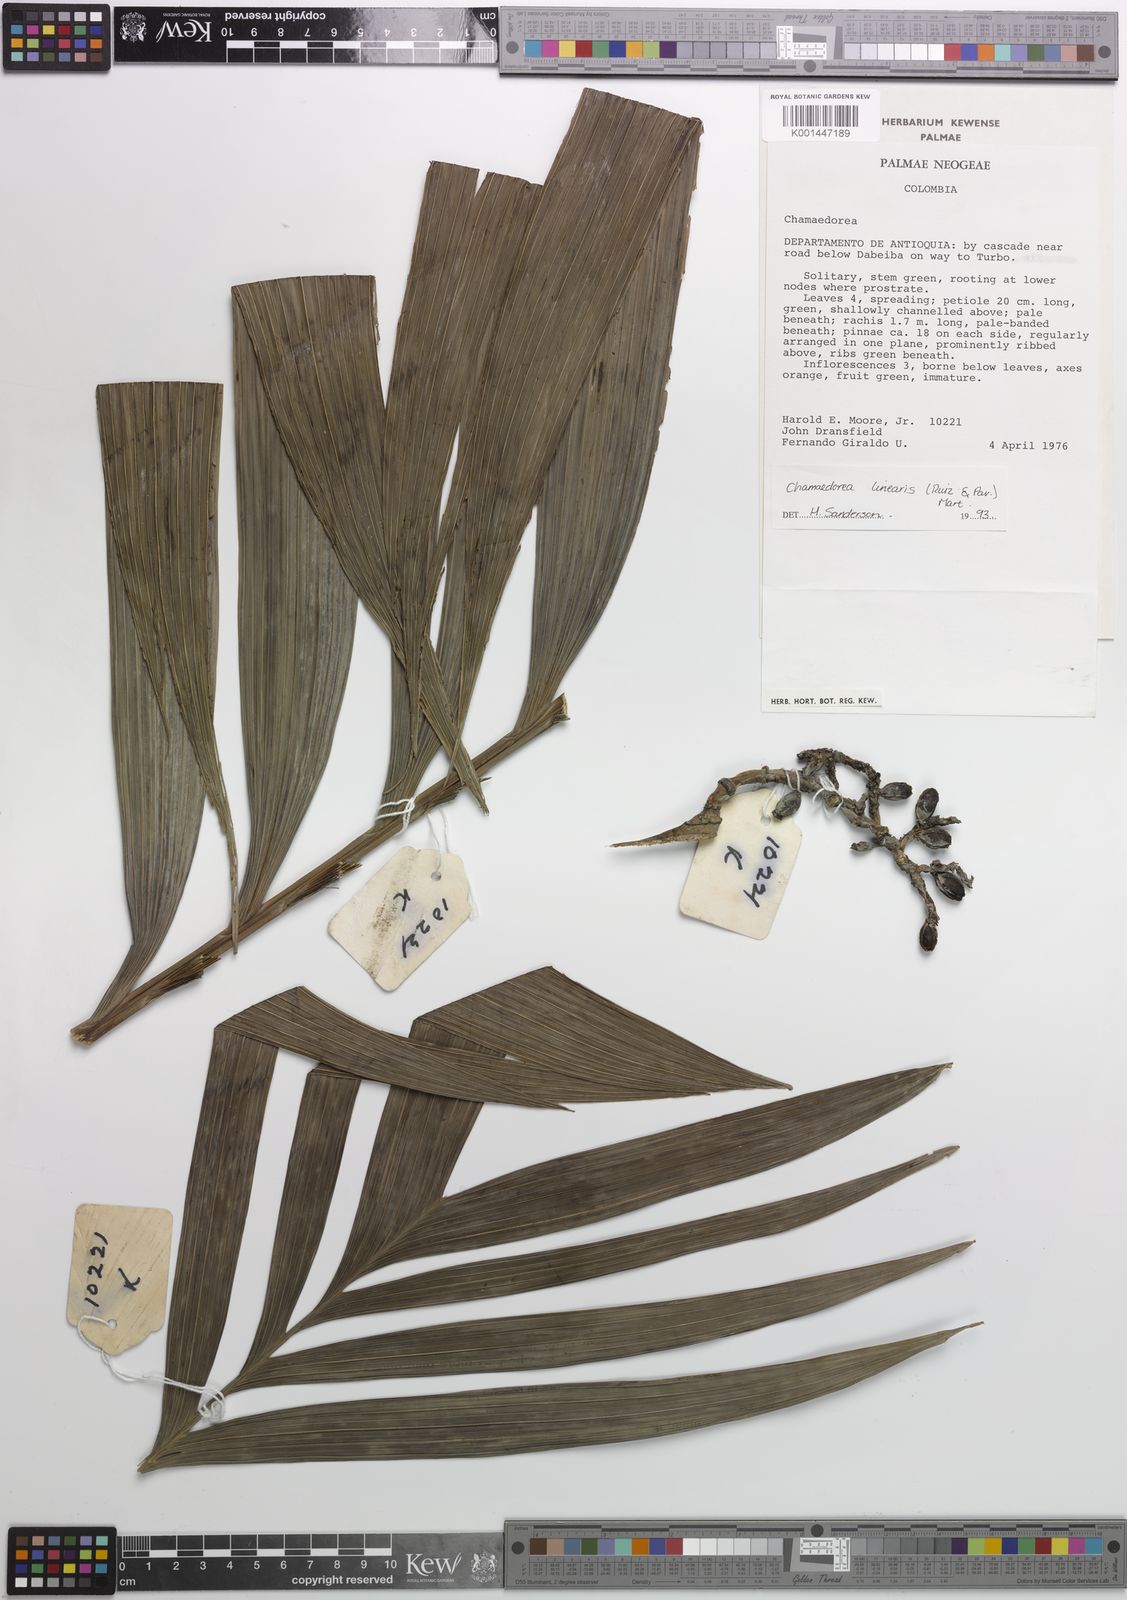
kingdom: Plantae
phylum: Tracheophyta
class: Liliopsida
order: Arecales
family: Arecaceae
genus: Chamaedorea
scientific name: Chamaedorea linearis
